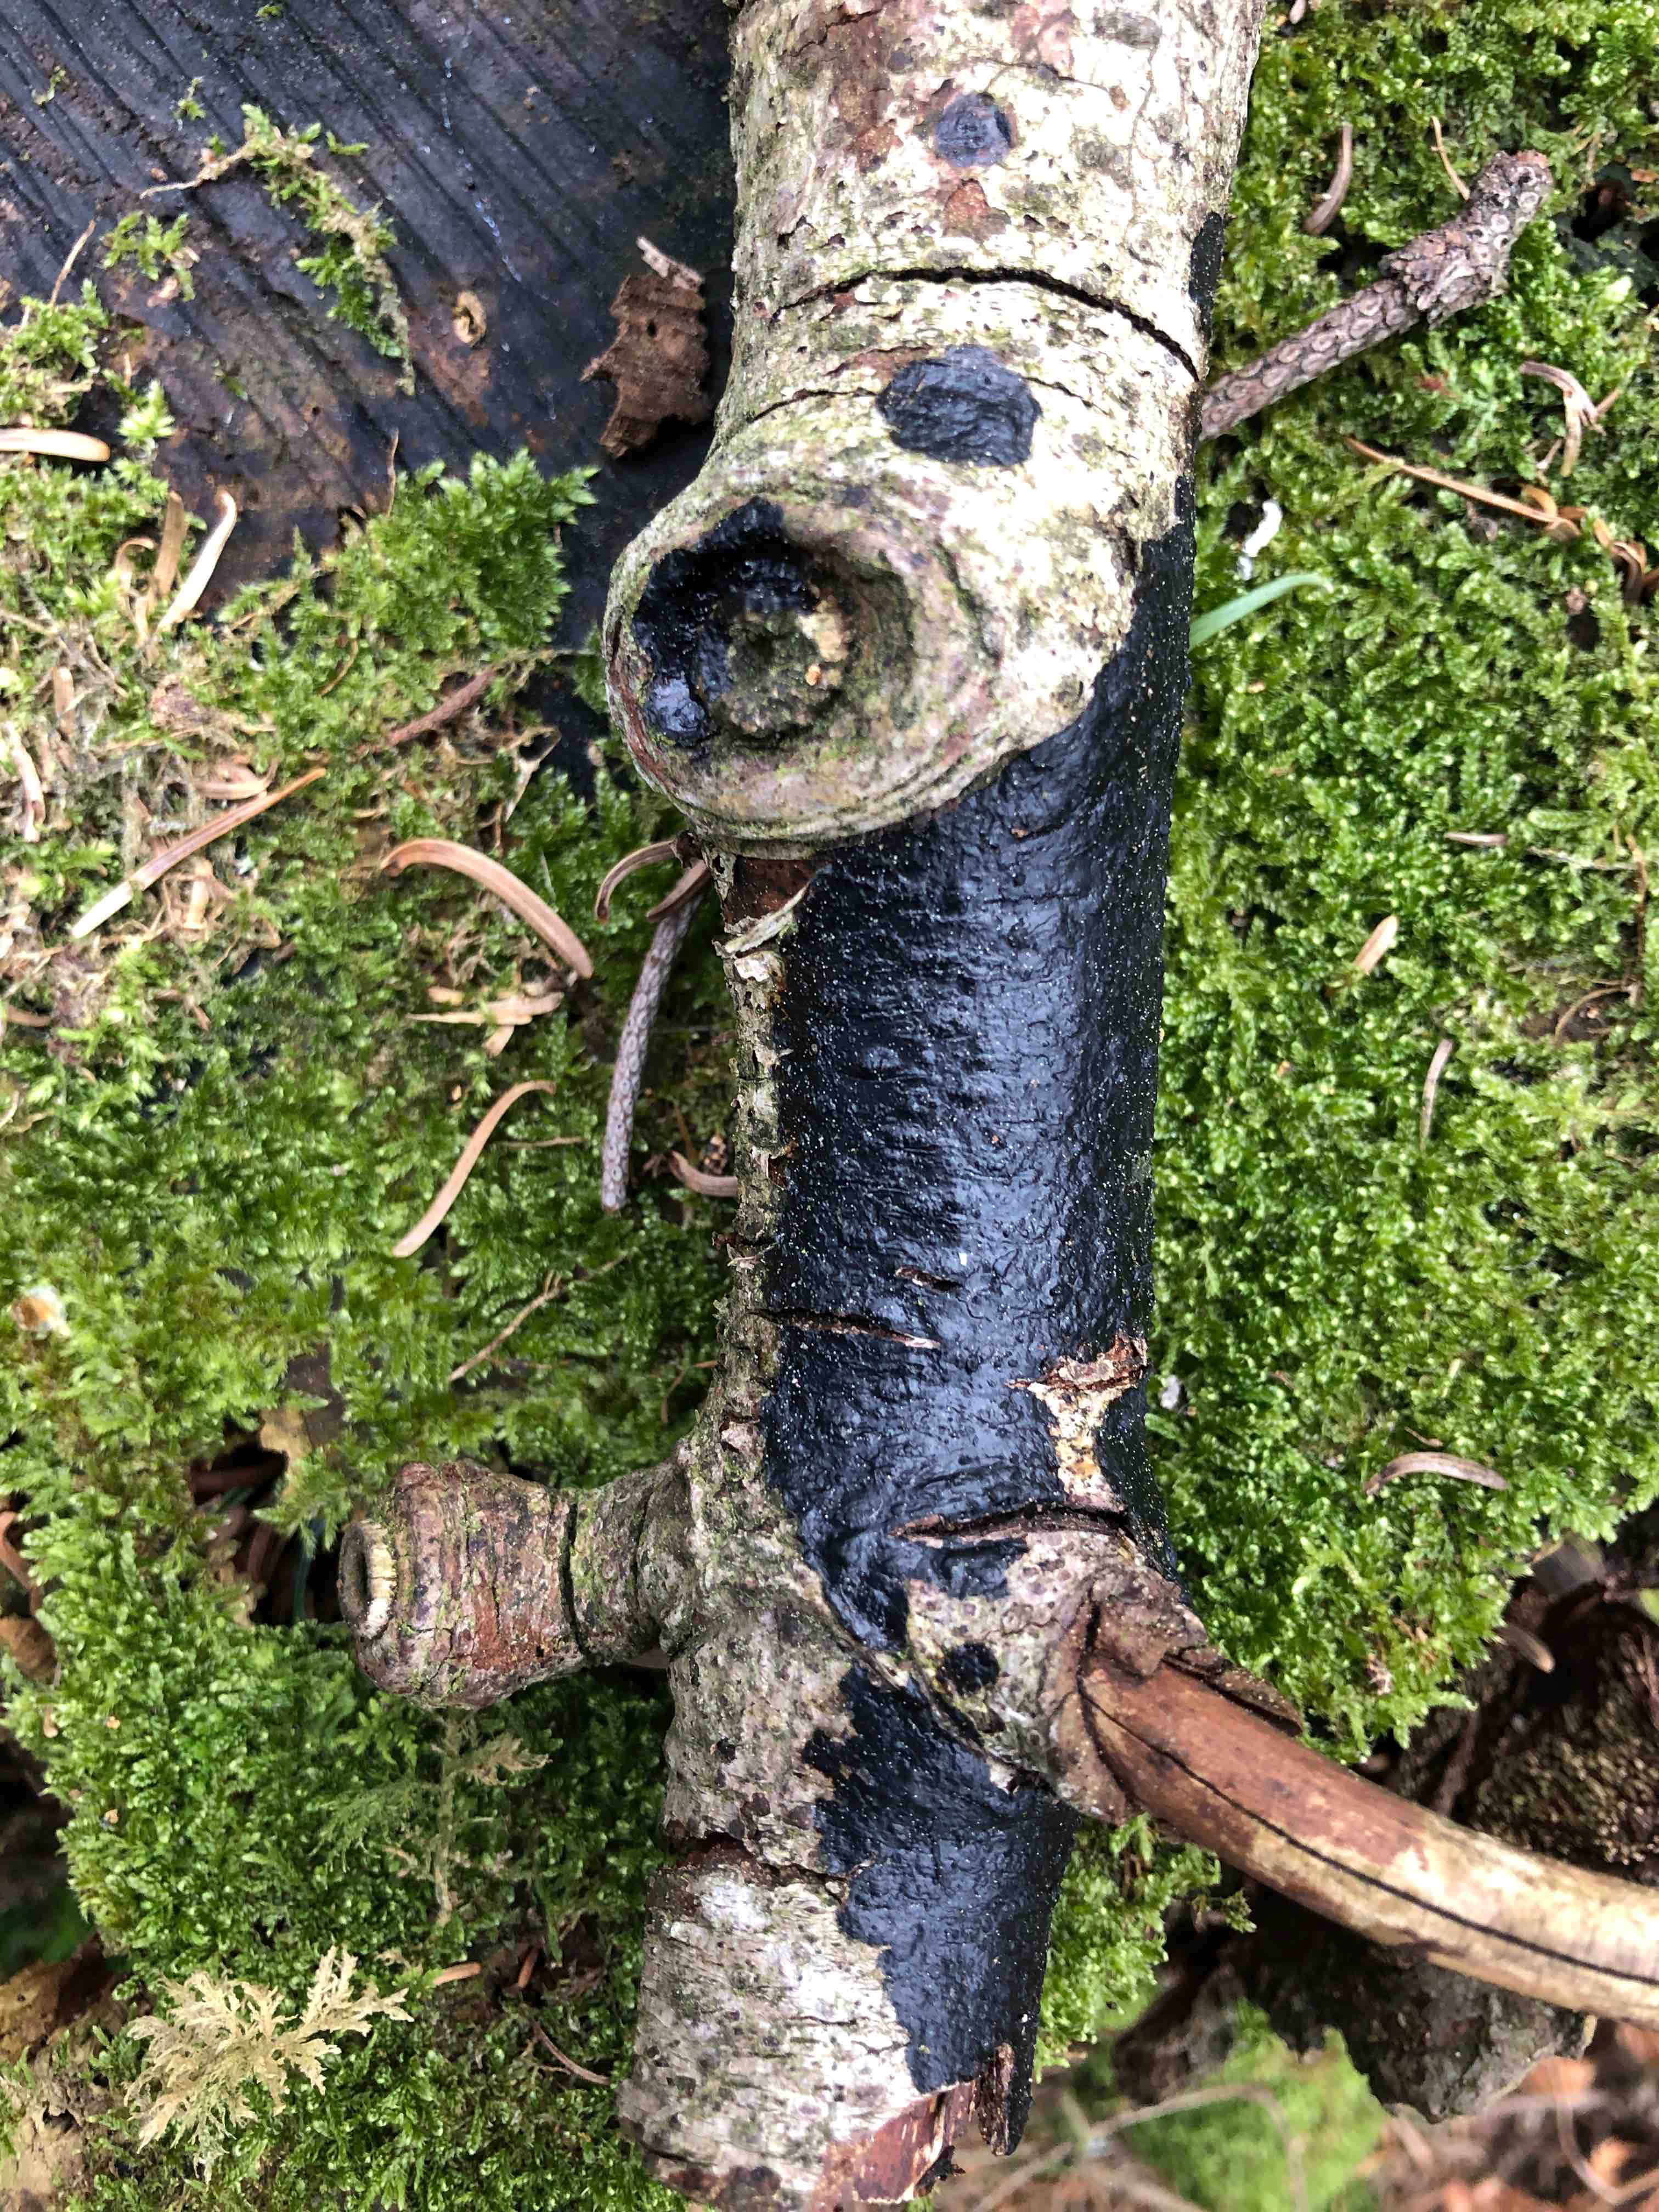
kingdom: Fungi
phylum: Basidiomycota
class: Agaricomycetes
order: Auriculariales
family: Auriculariaceae
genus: Exidia
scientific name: Exidia pithya
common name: gran-bævretop
